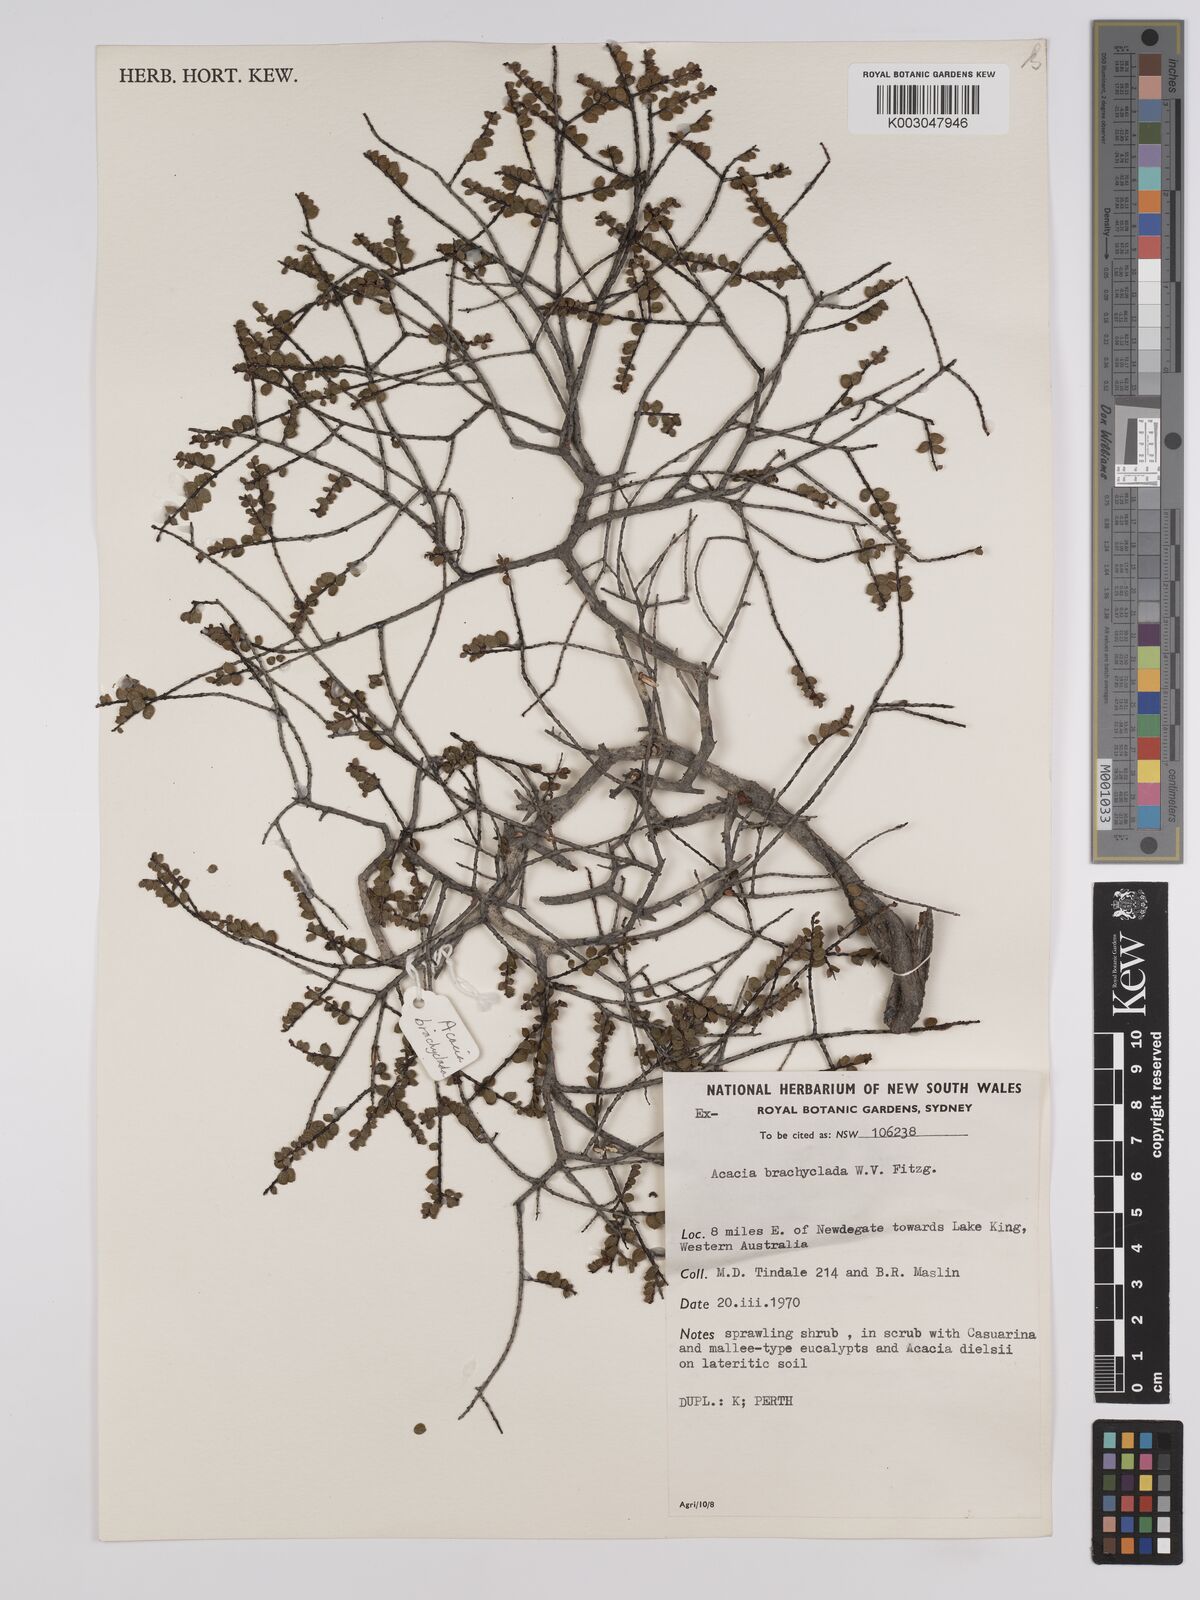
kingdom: Plantae
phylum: Tracheophyta
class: Magnoliopsida
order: Fabales
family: Fabaceae
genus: Acacia
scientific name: Acacia brachyclada
